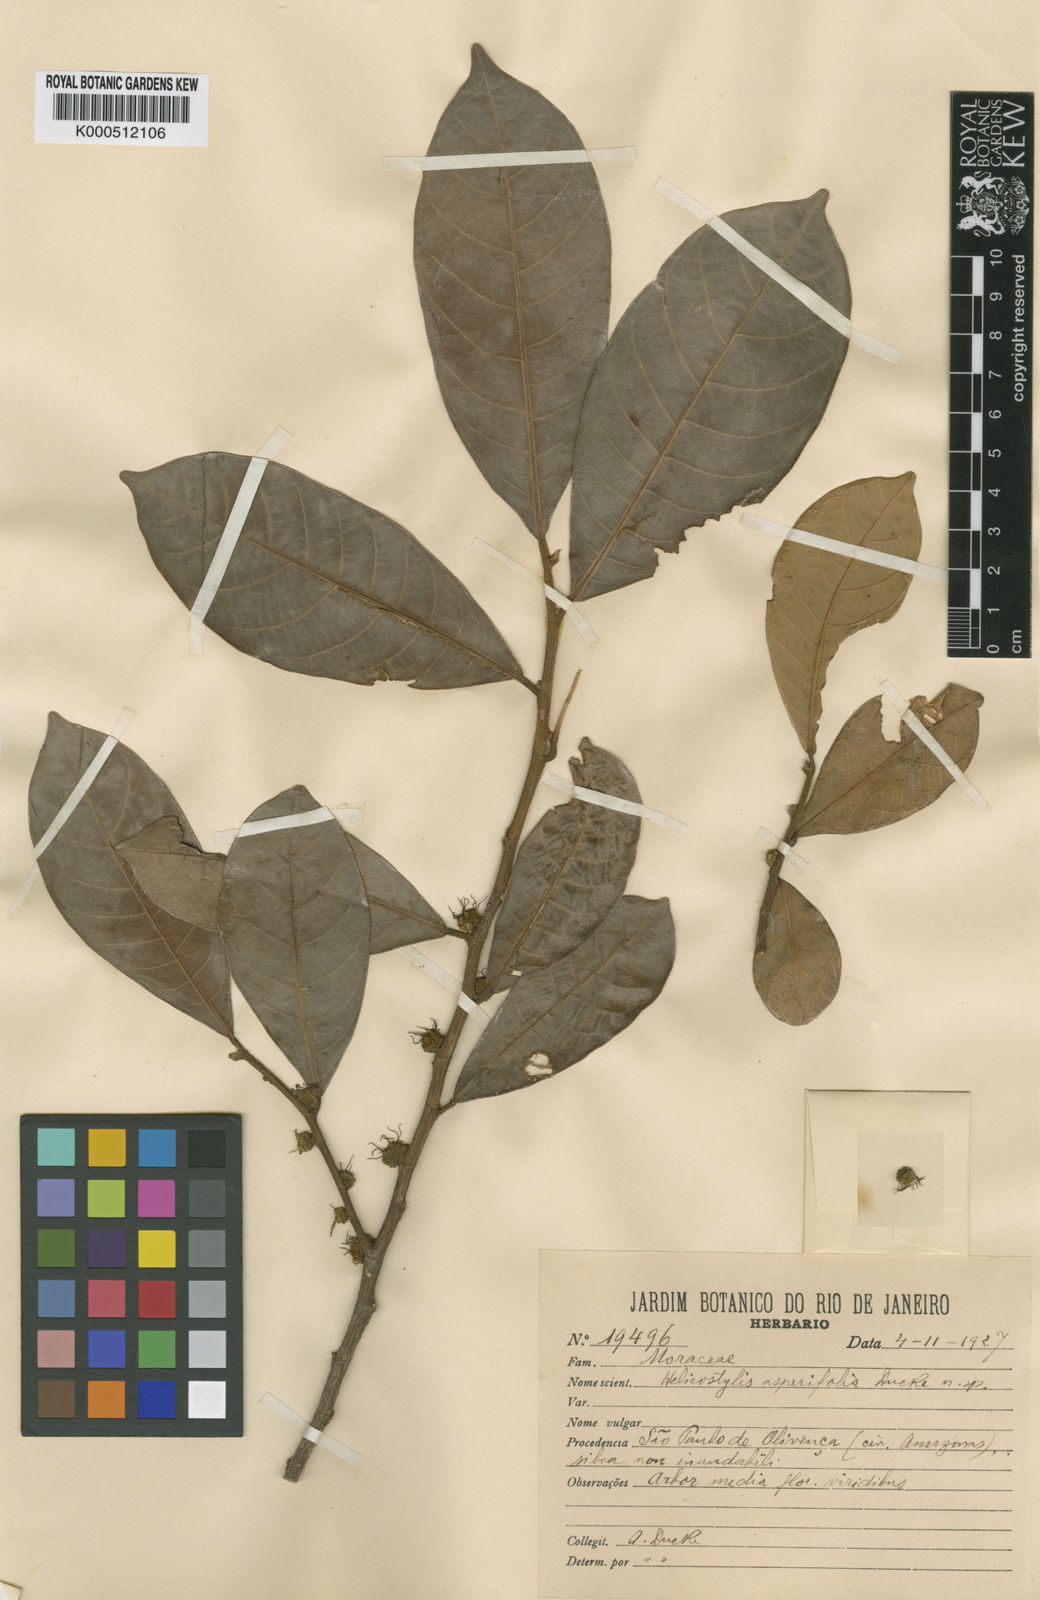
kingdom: Plantae
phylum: Tracheophyta
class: Magnoliopsida
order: Rosales
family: Moraceae
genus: Helicostylis
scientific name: Helicostylis scabra
